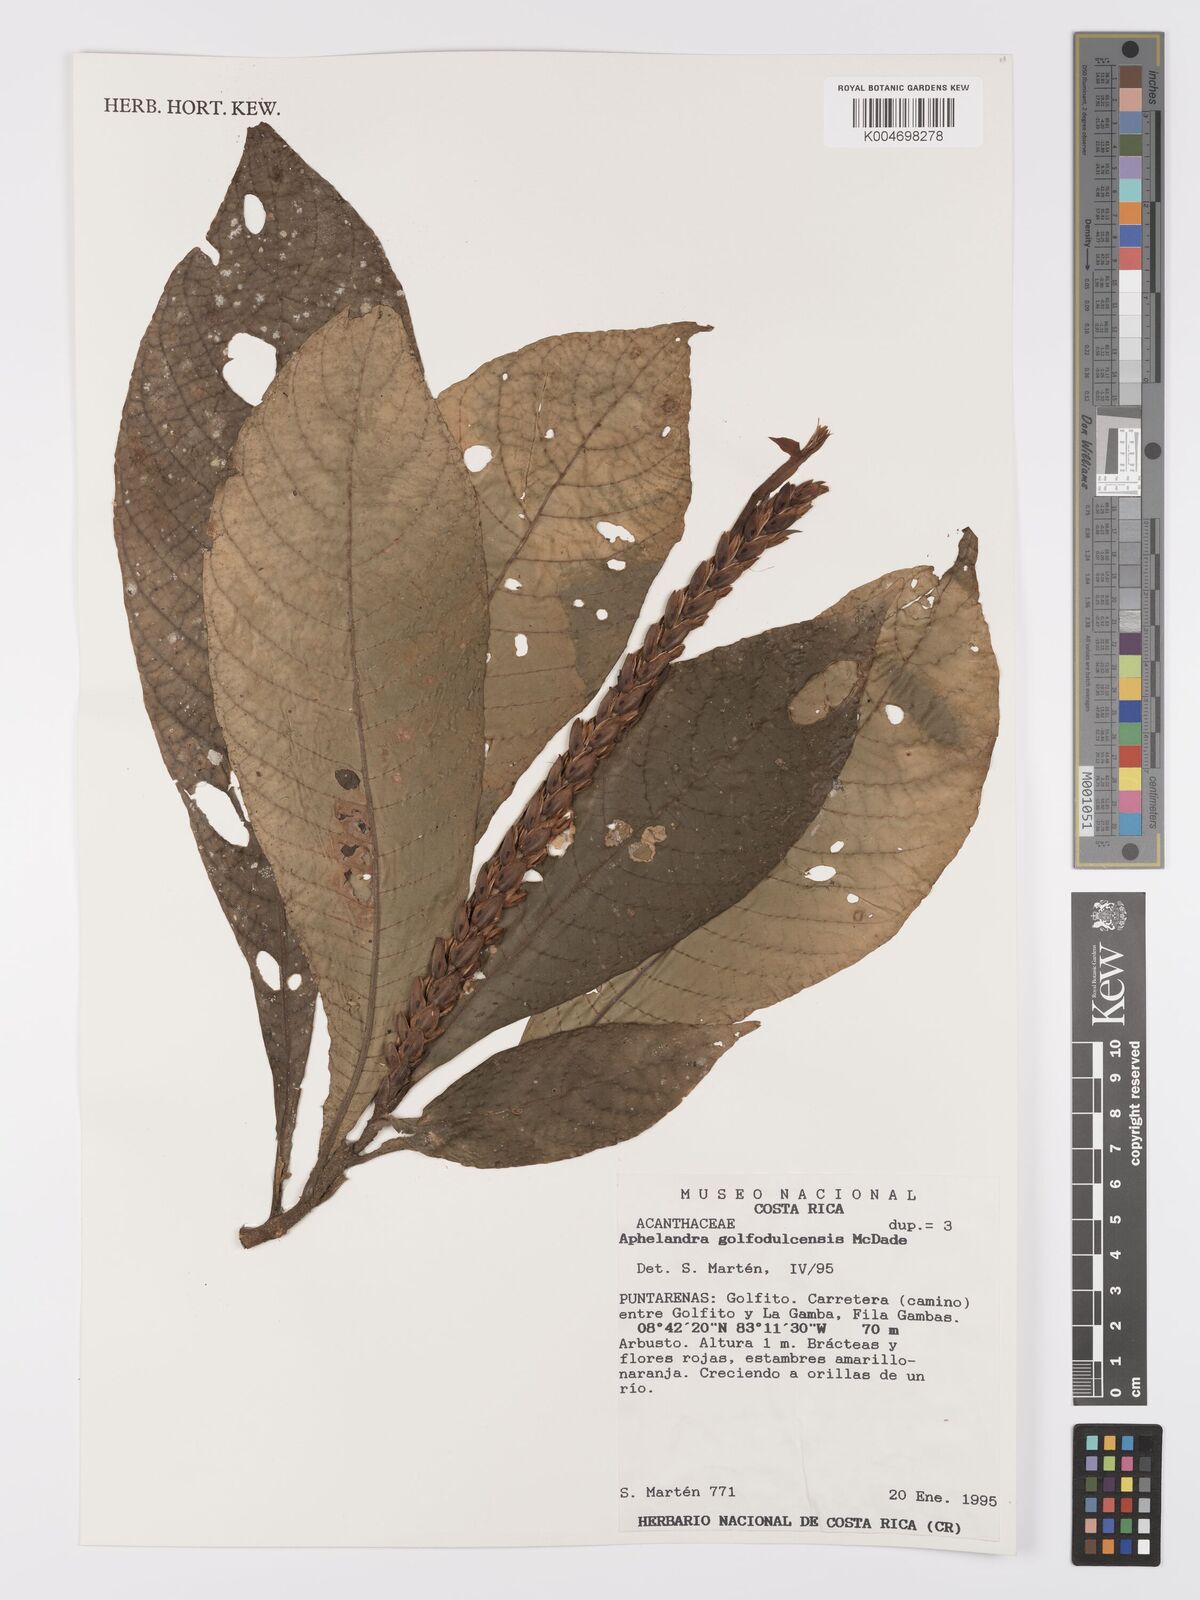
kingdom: Plantae
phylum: Tracheophyta
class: Magnoliopsida
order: Lamiales
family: Acanthaceae
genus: Aphelandra
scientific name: Aphelandra golfodulcensis
